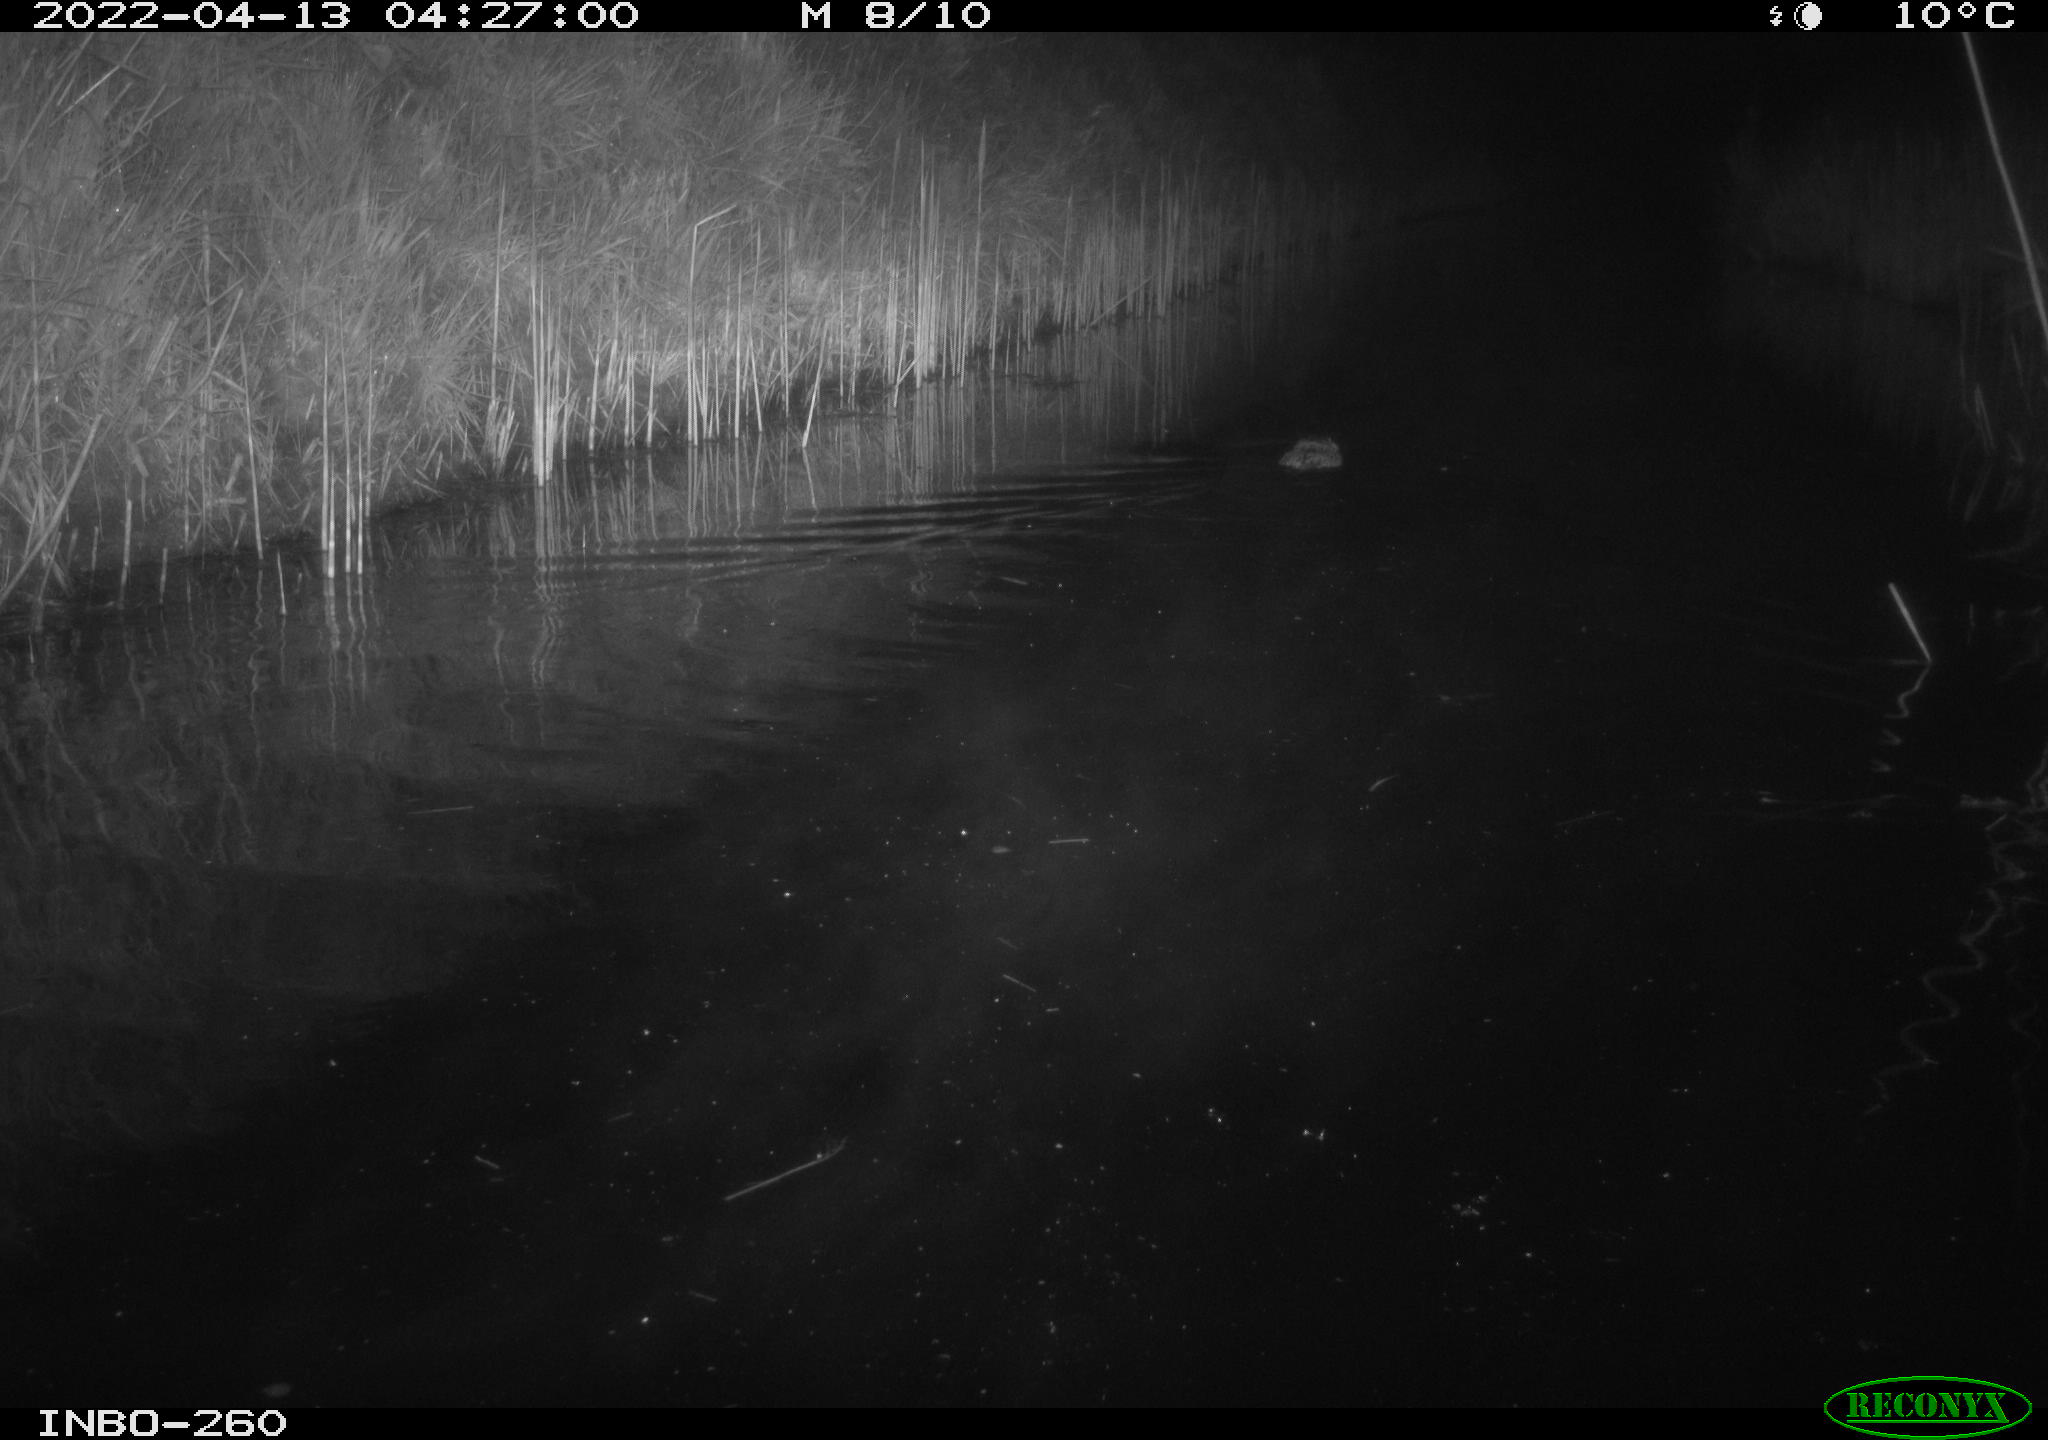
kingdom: Animalia
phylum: Chordata
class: Mammalia
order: Rodentia
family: Cricetidae
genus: Ondatra
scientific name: Ondatra zibethicus
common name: Muskrat
